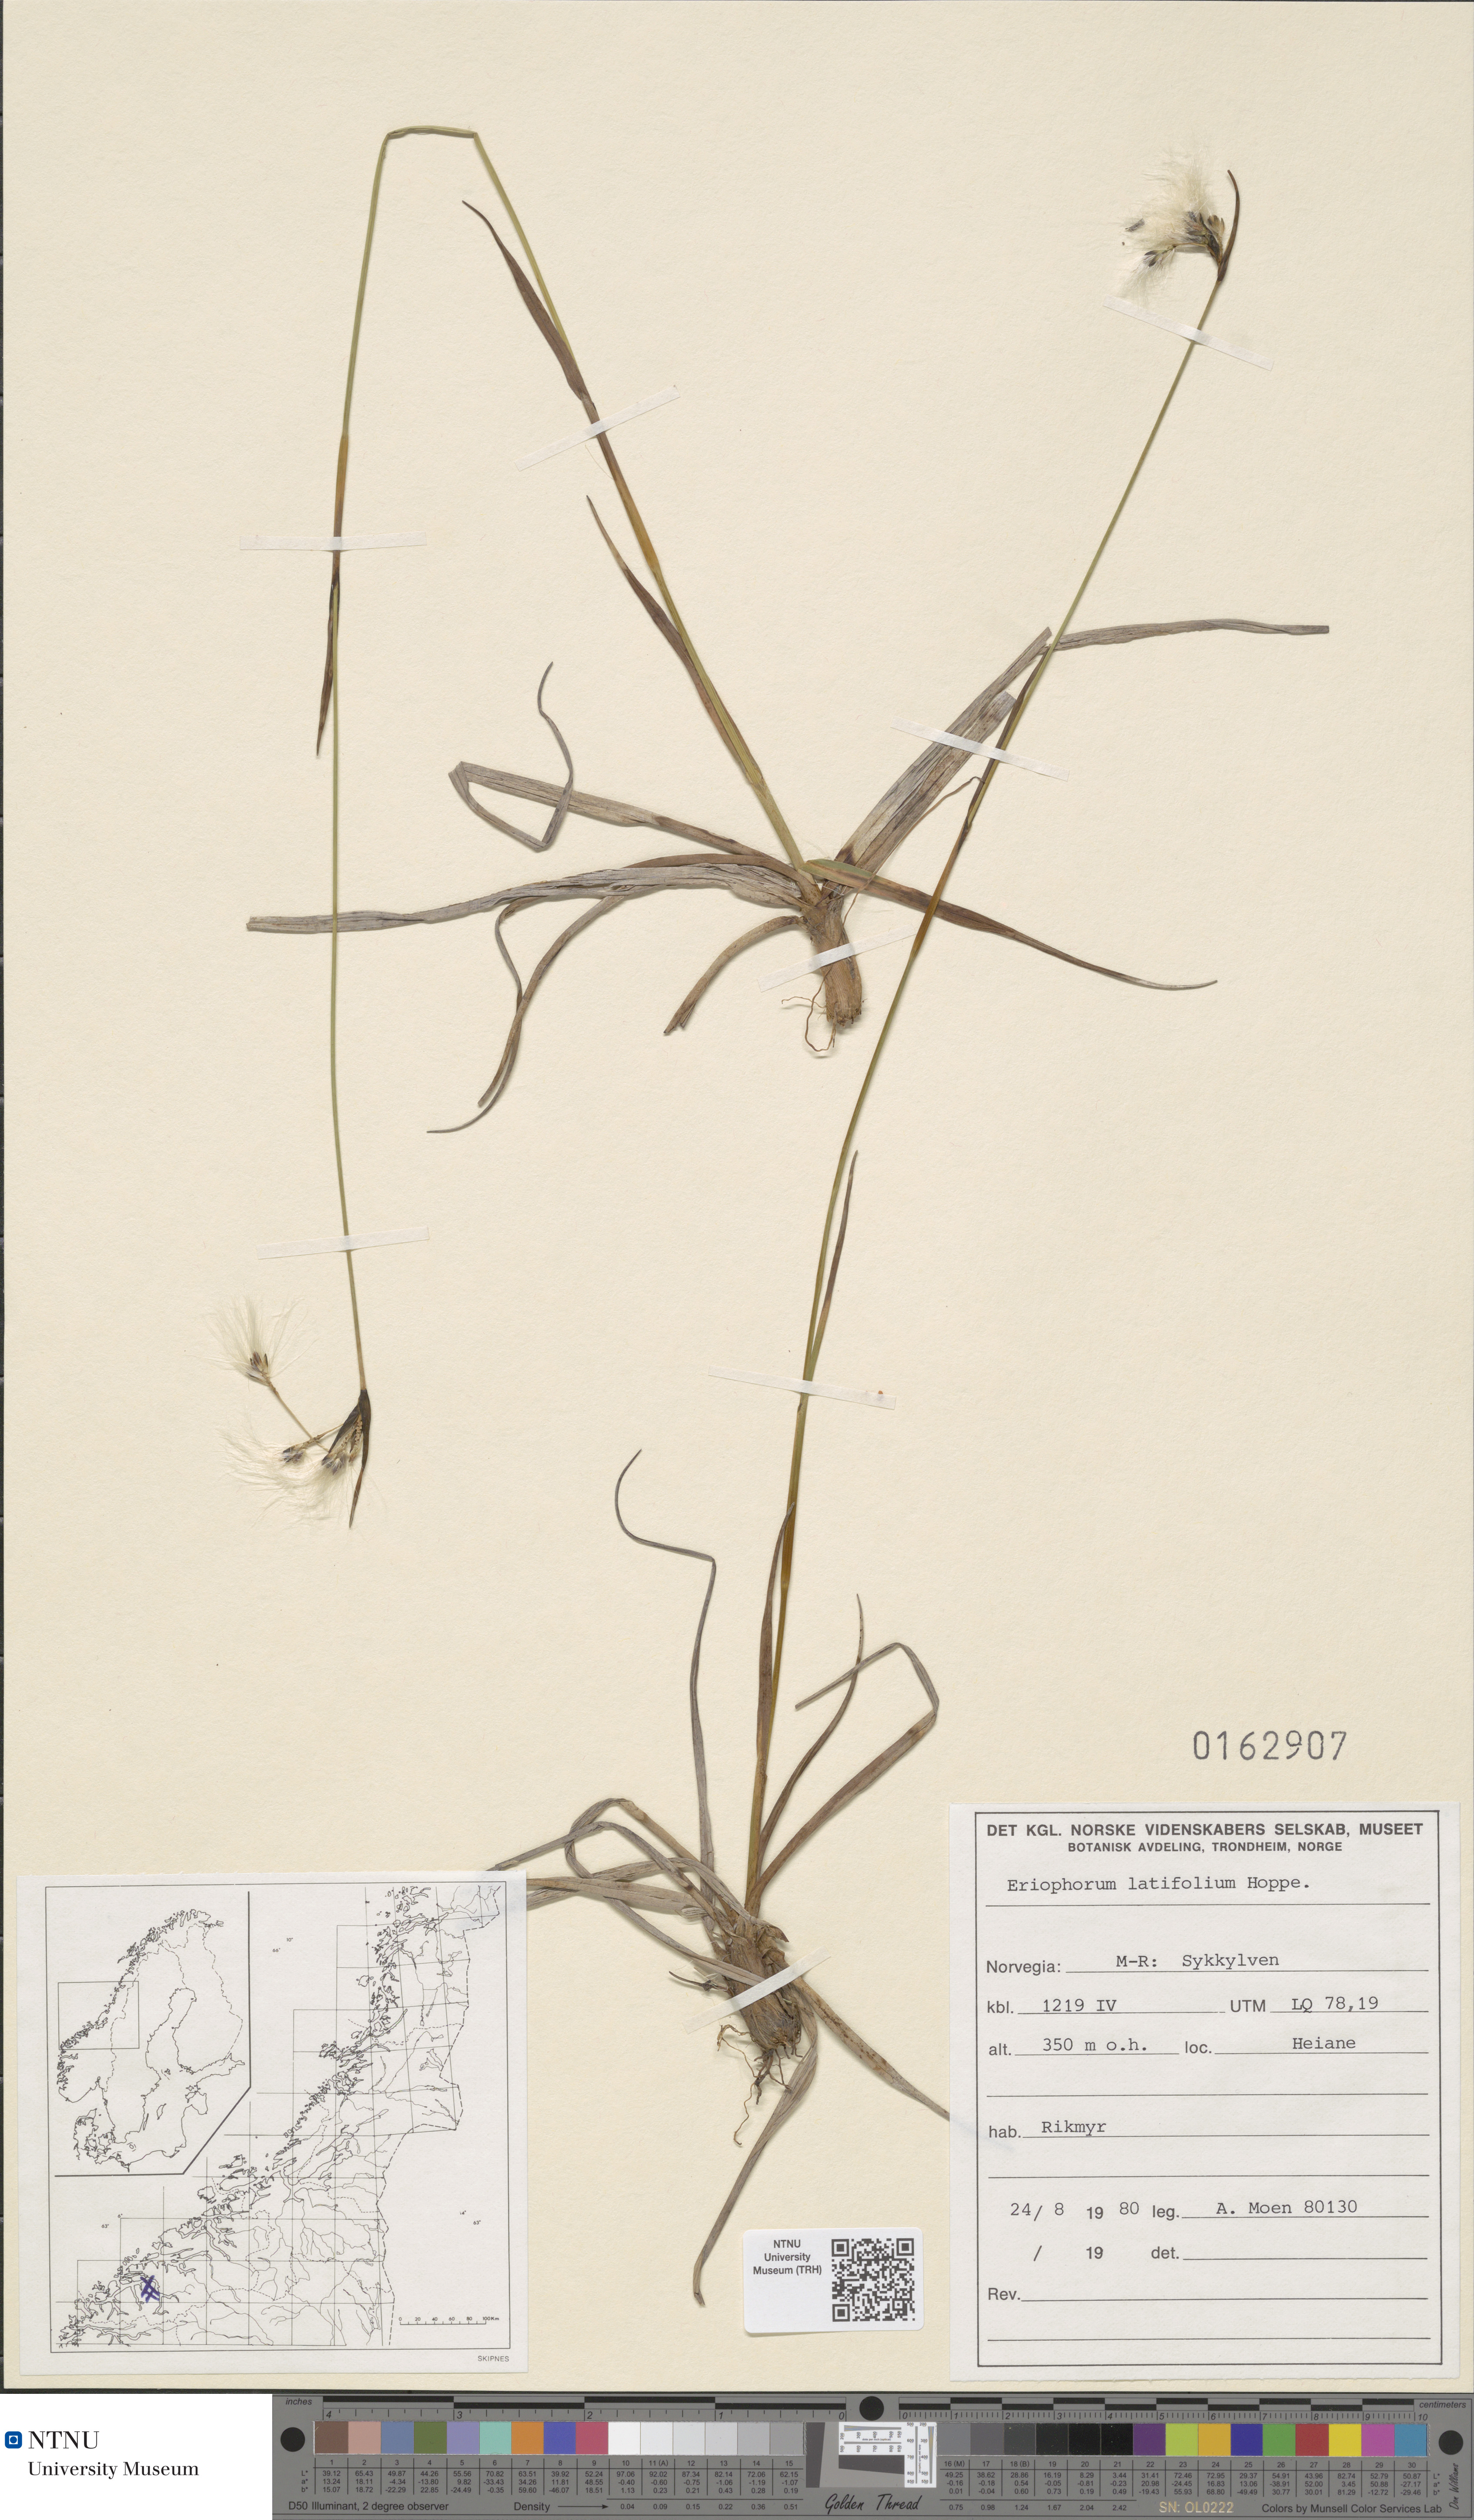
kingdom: Plantae
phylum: Tracheophyta
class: Liliopsida
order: Poales
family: Cyperaceae
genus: Eriophorum
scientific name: Eriophorum latifolium
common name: Broad-leaved cottongrass
